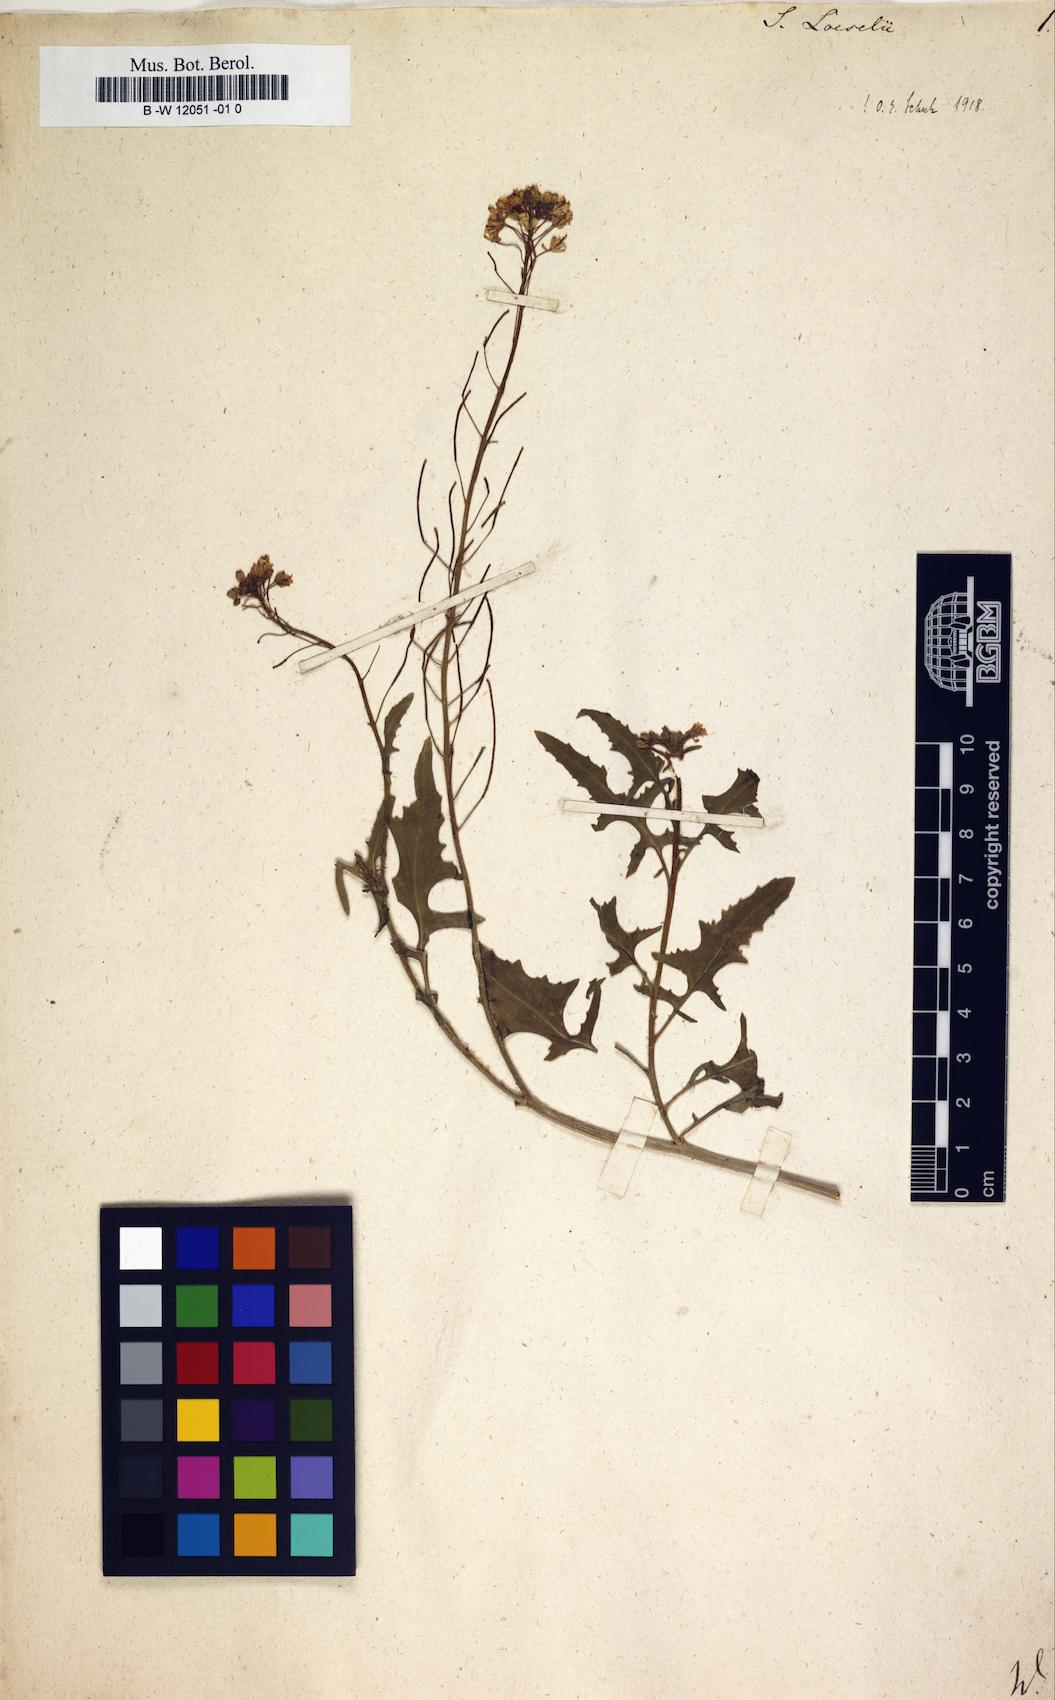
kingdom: Plantae
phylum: Tracheophyta
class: Magnoliopsida
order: Brassicales
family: Brassicaceae
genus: Sisymbrium
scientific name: Sisymbrium loeselii
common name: False london-rocket
